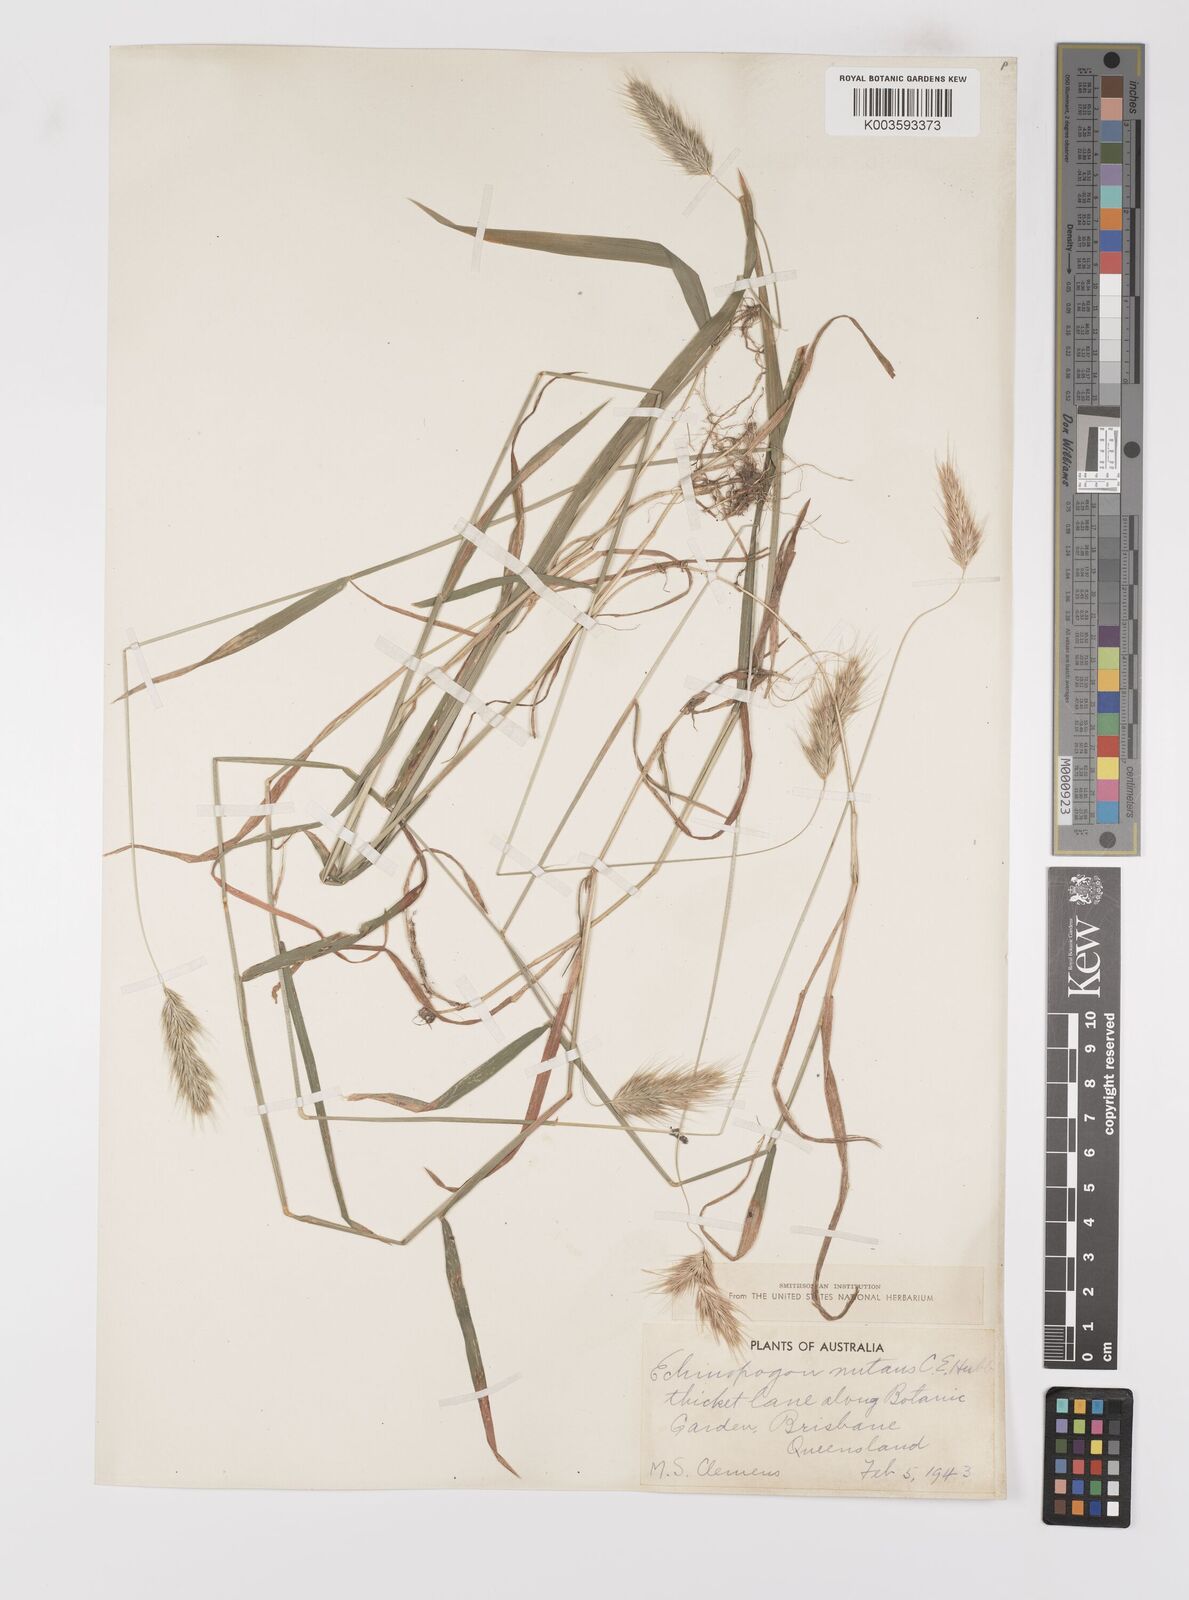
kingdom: Plantae
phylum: Tracheophyta
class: Liliopsida
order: Poales
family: Poaceae
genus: Echinopogon
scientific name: Echinopogon nutans
